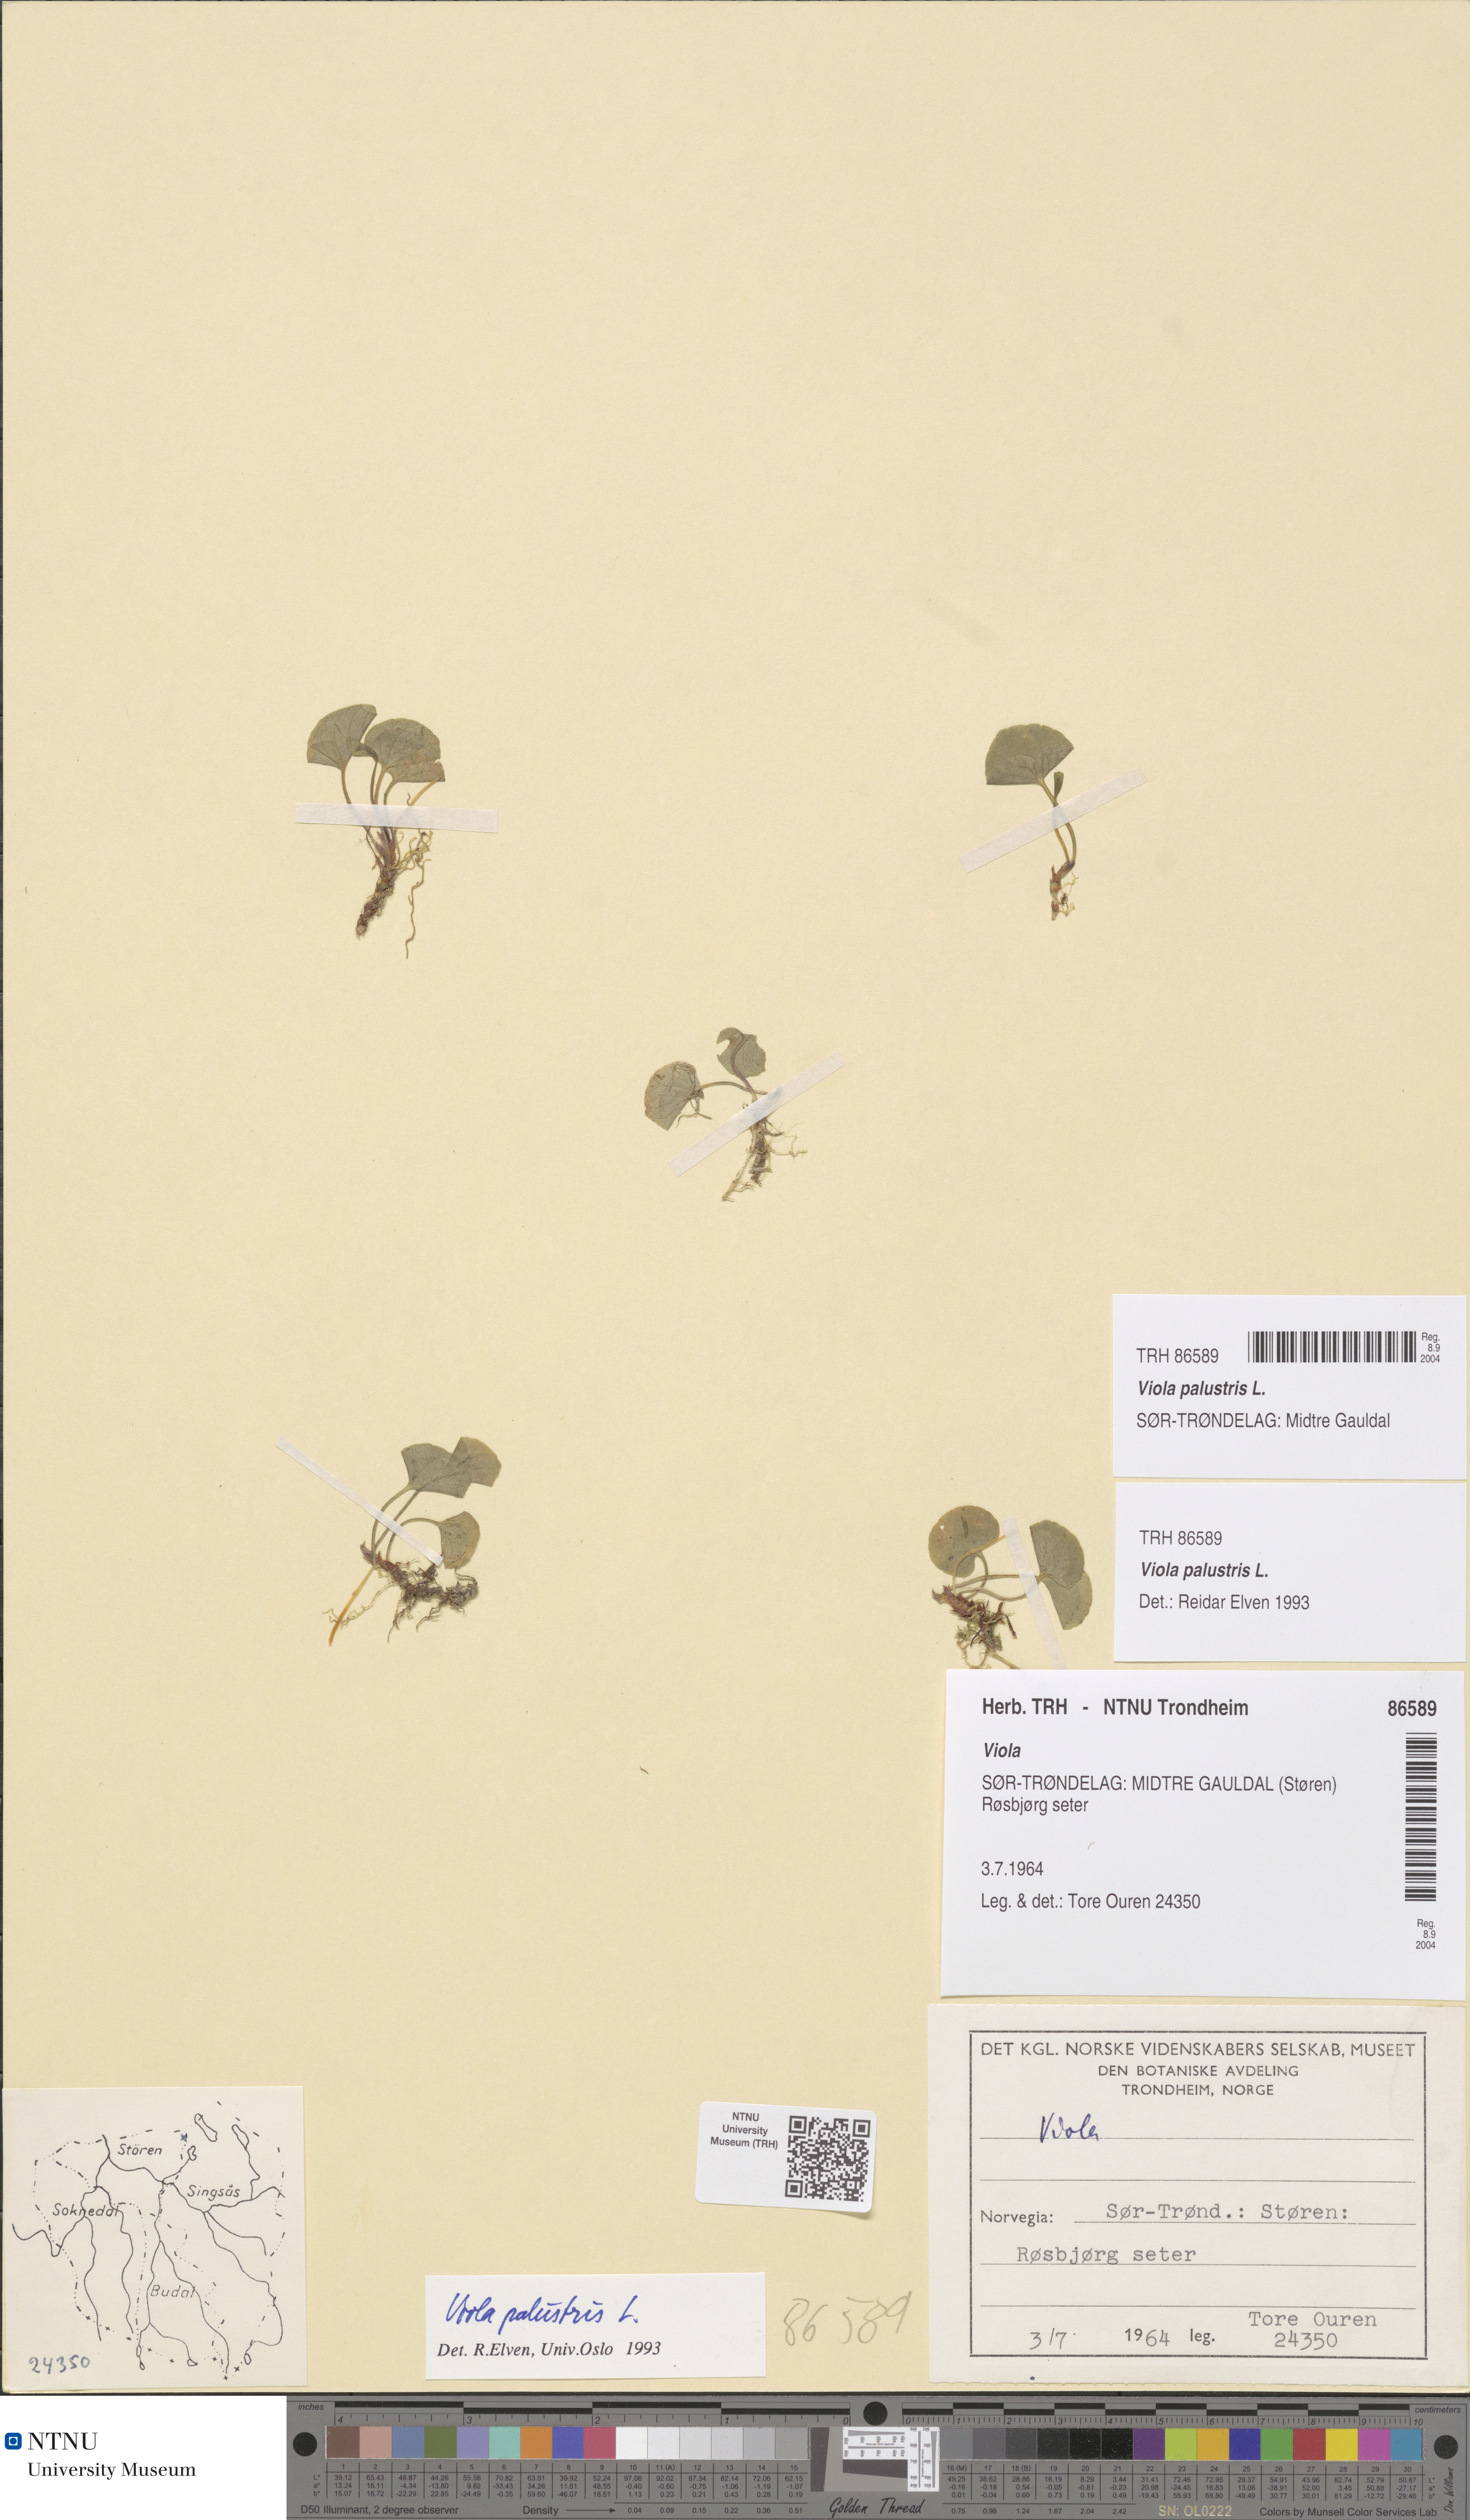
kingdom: Plantae
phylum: Tracheophyta
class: Magnoliopsida
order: Malpighiales
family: Violaceae
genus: Viola
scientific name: Viola palustris
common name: Marsh violet
